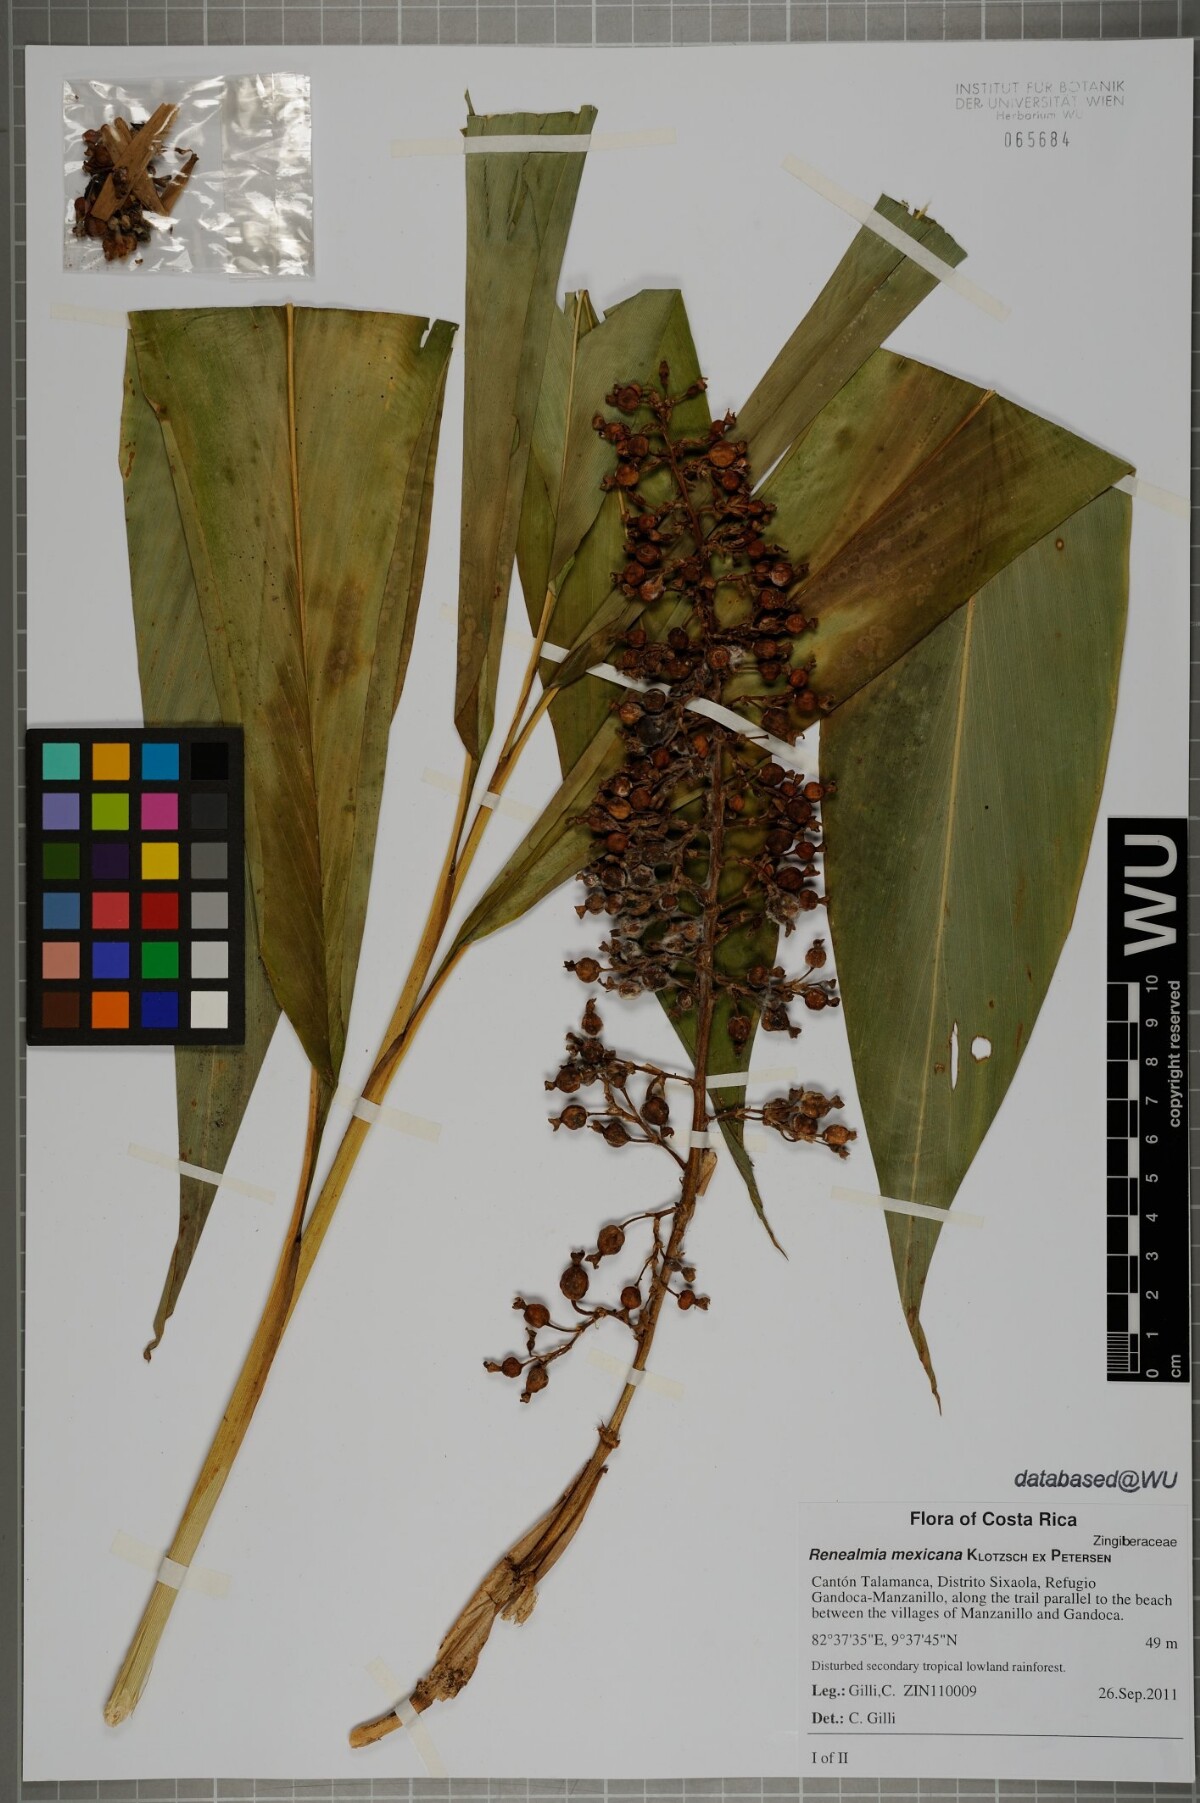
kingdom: Plantae
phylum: Tracheophyta
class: Liliopsida
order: Zingiberales
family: Zingiberaceae
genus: Renealmia
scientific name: Renealmia mexicana
